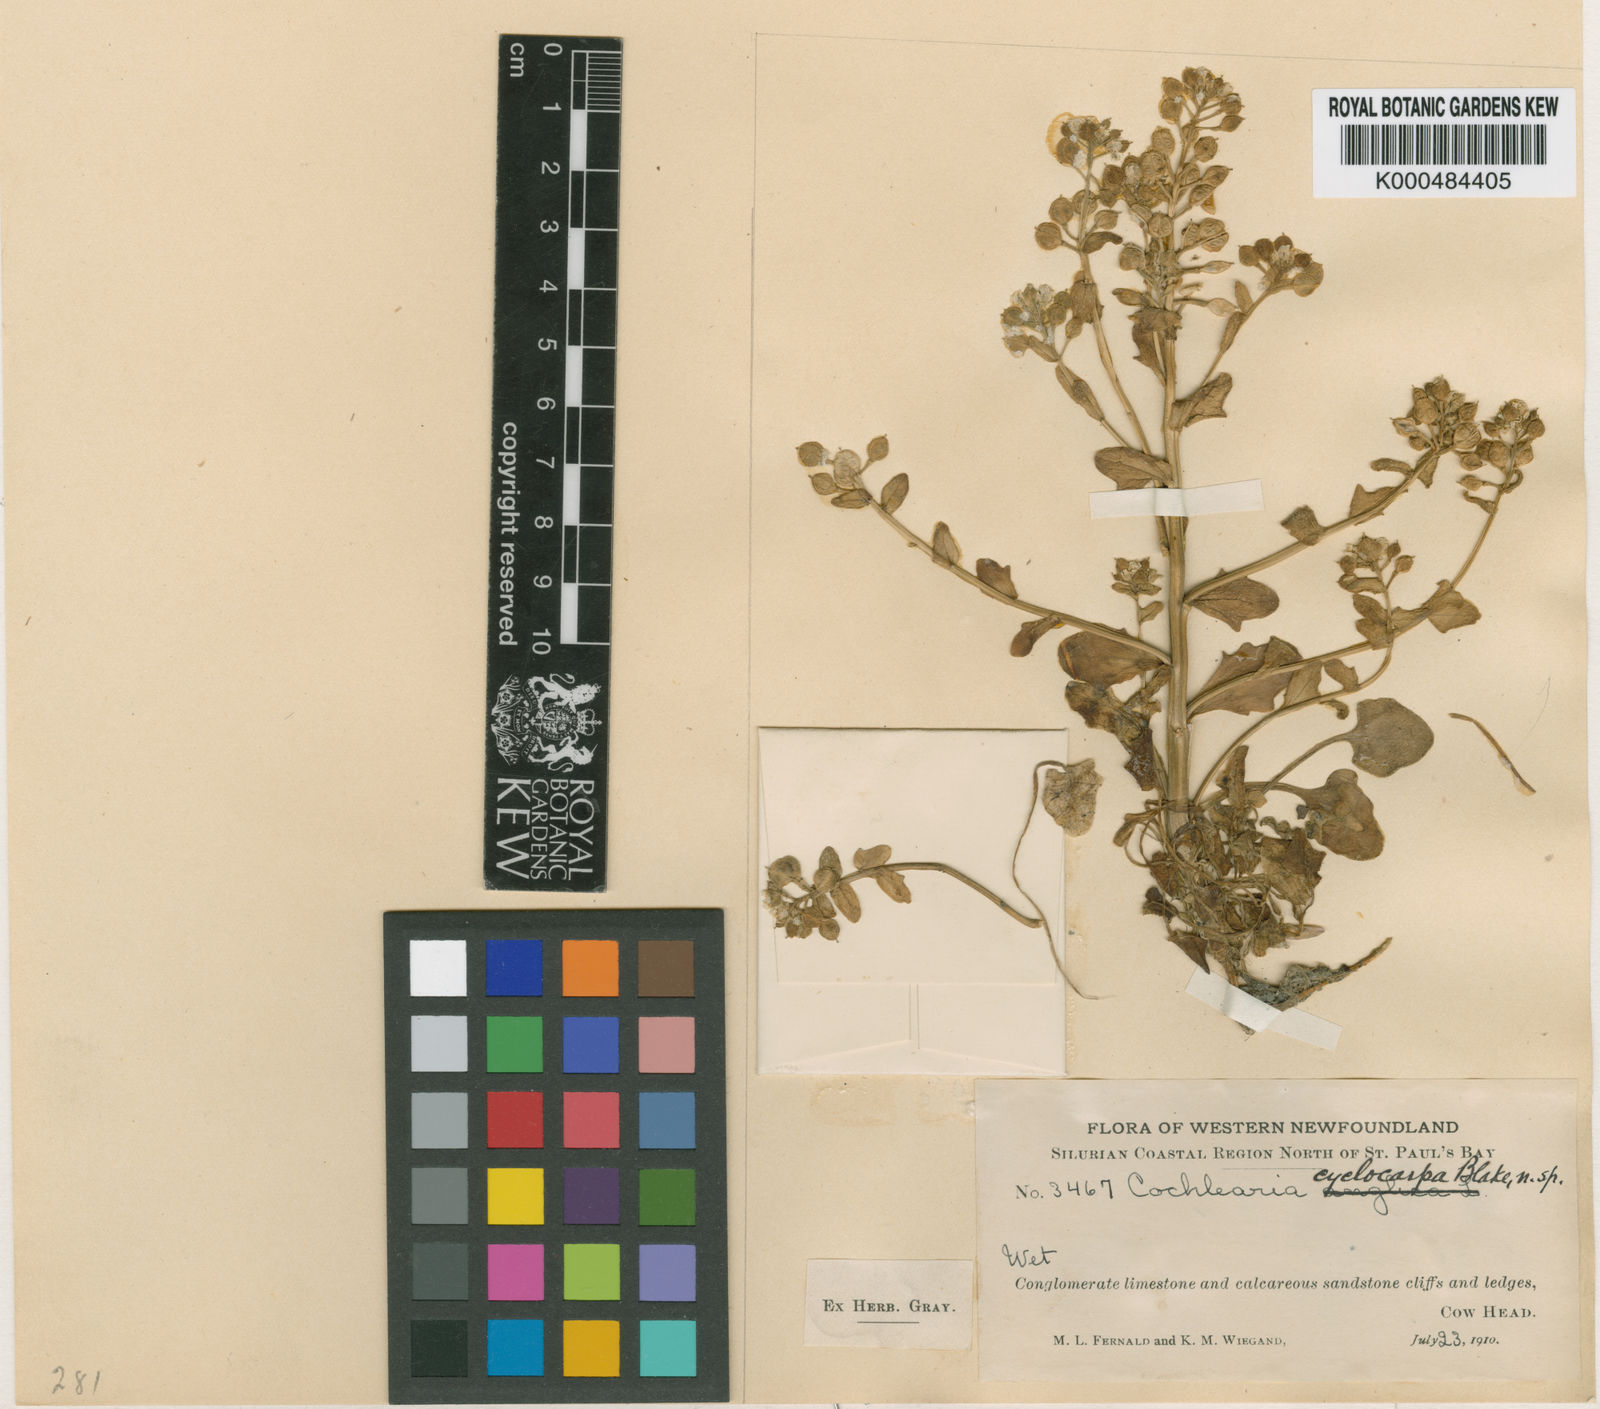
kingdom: Plantae
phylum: Tracheophyta
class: Magnoliopsida
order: Brassicales
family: Brassicaceae
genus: Cochlearia
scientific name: Cochlearia tridactylites
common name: Limestone scurvygrass
